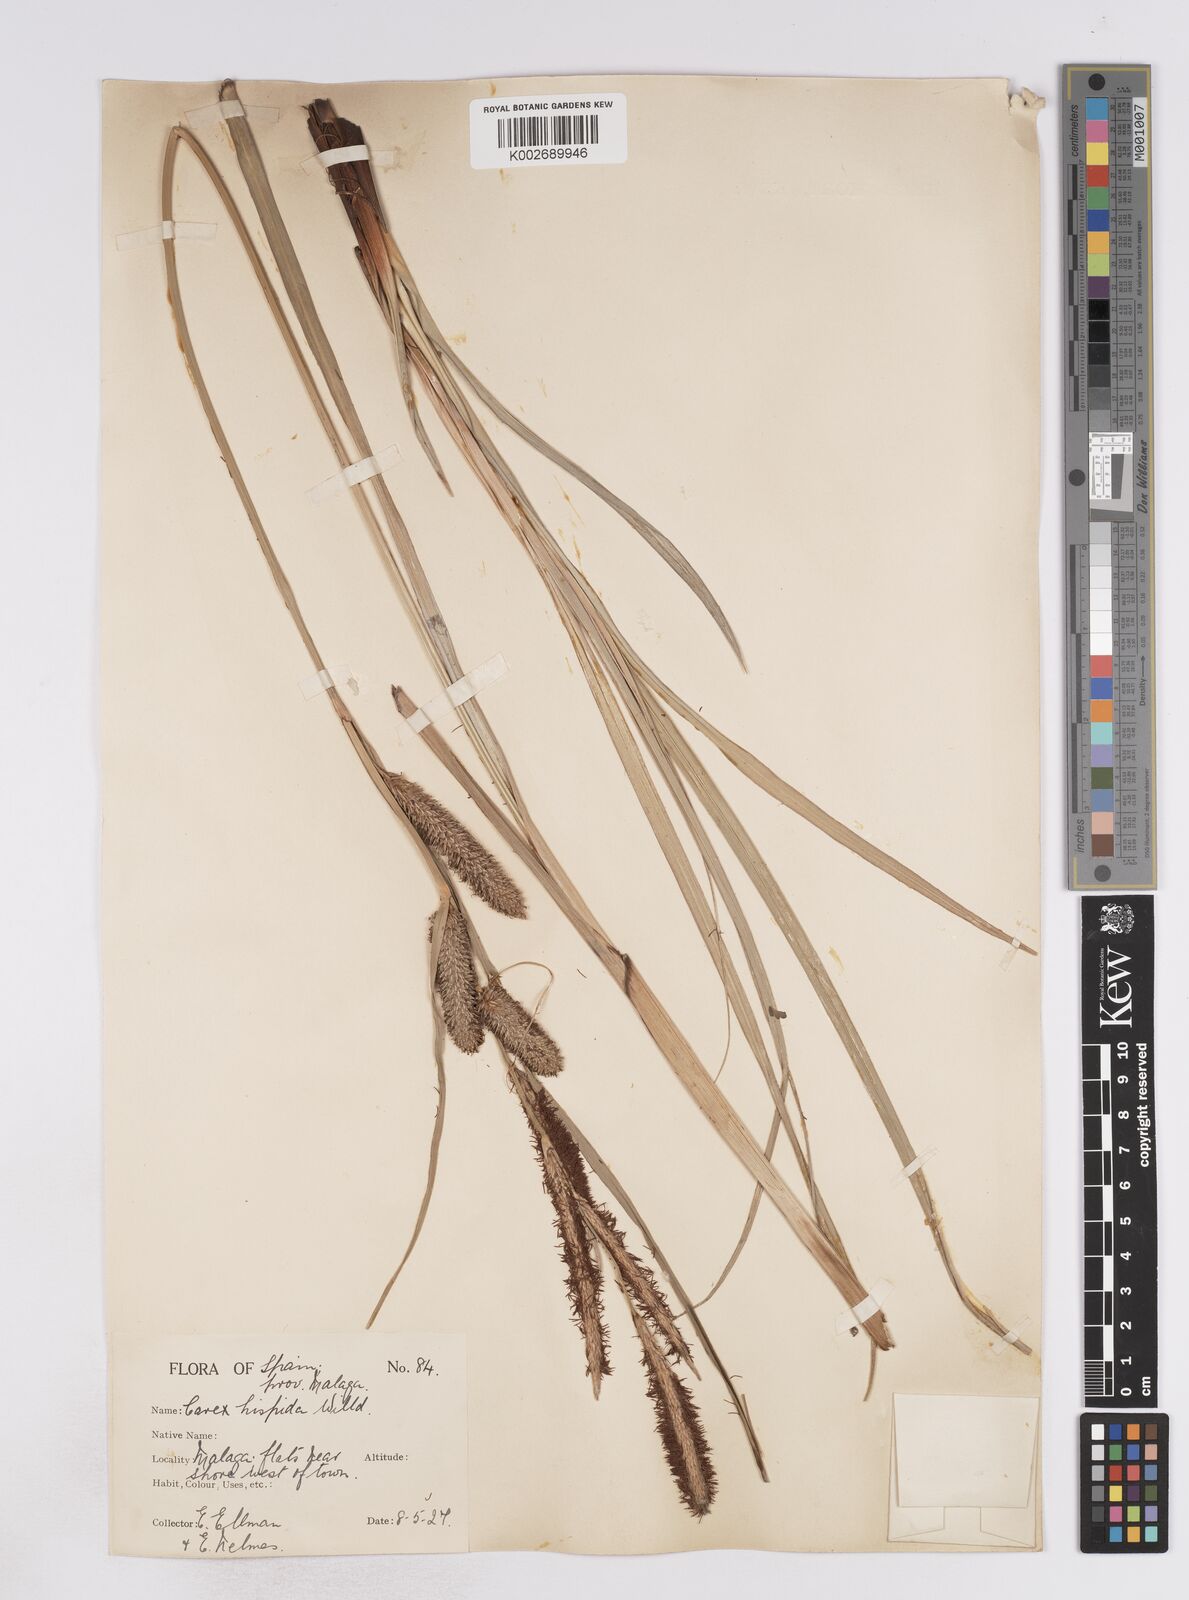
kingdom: Plantae
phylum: Tracheophyta
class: Liliopsida
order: Poales
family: Cyperaceae
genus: Carex
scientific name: Carex hispida
